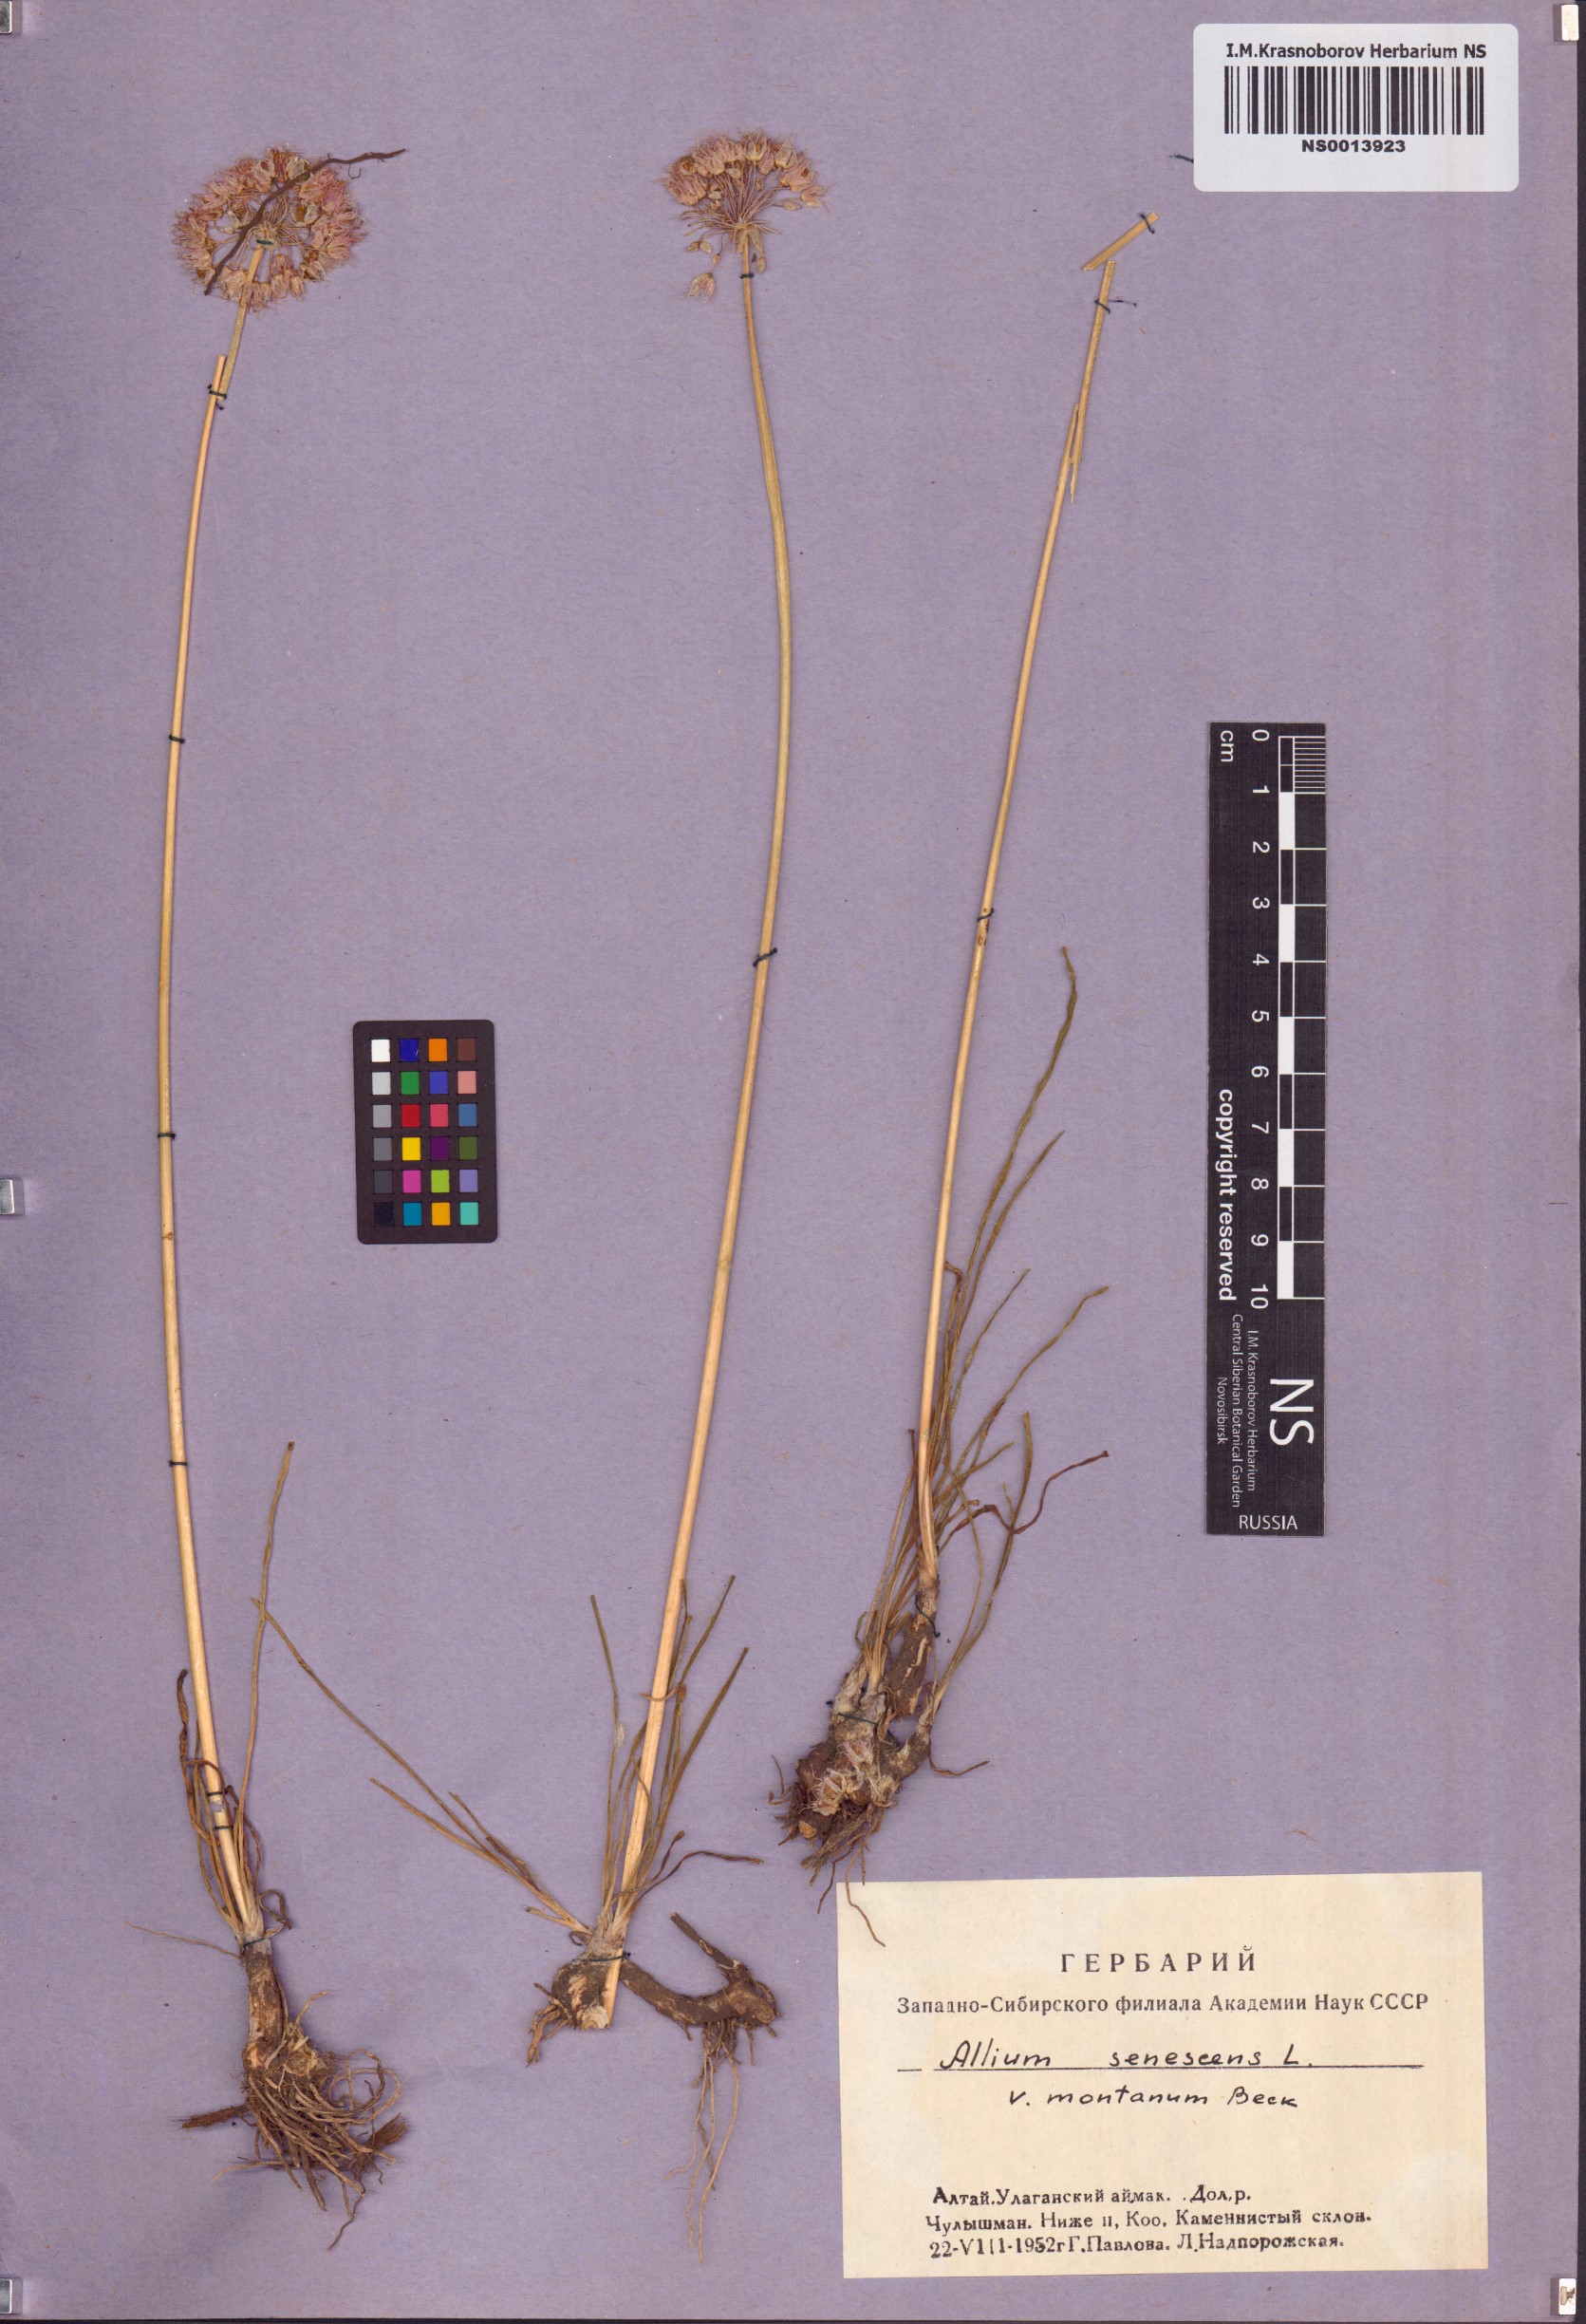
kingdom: Plantae
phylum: Tracheophyta
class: Liliopsida
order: Asparagales
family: Amaryllidaceae
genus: Allium
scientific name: Allium lusitanicum
